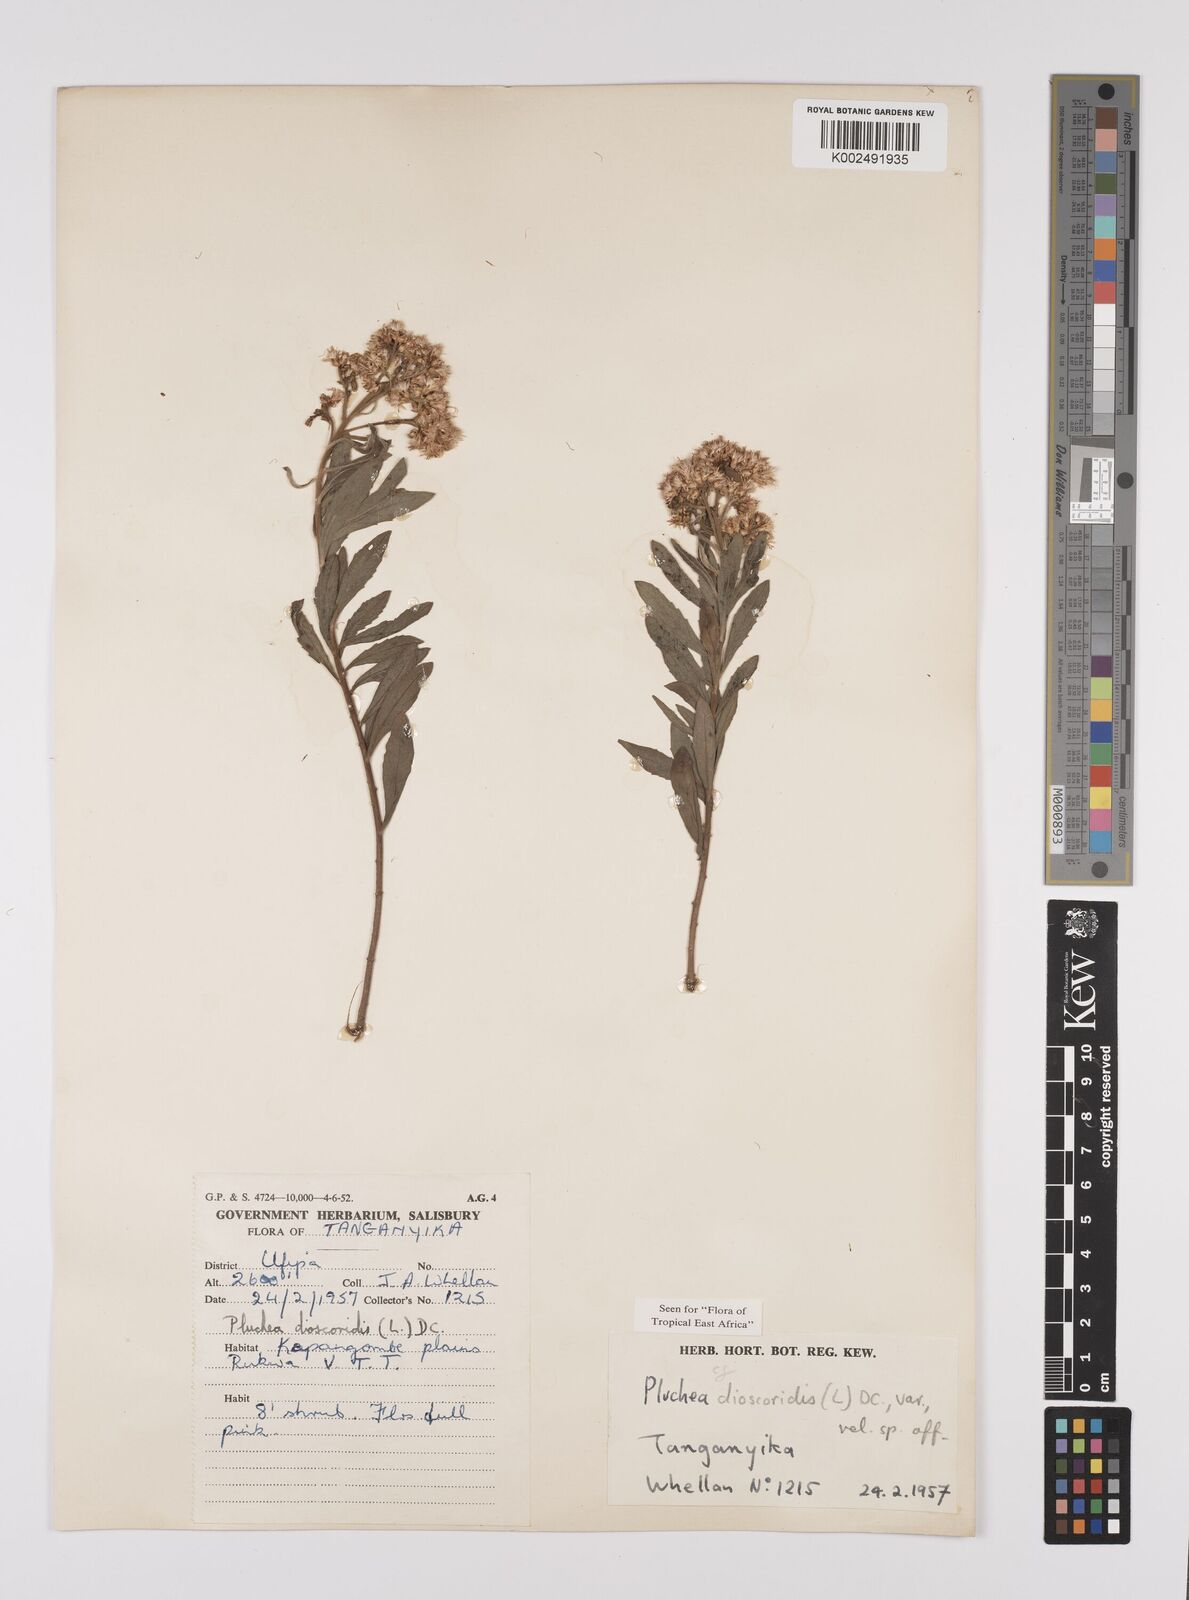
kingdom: Plantae
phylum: Tracheophyta
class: Magnoliopsida
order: Asterales
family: Asteraceae
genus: Pluchea
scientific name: Pluchea dioscoridis
